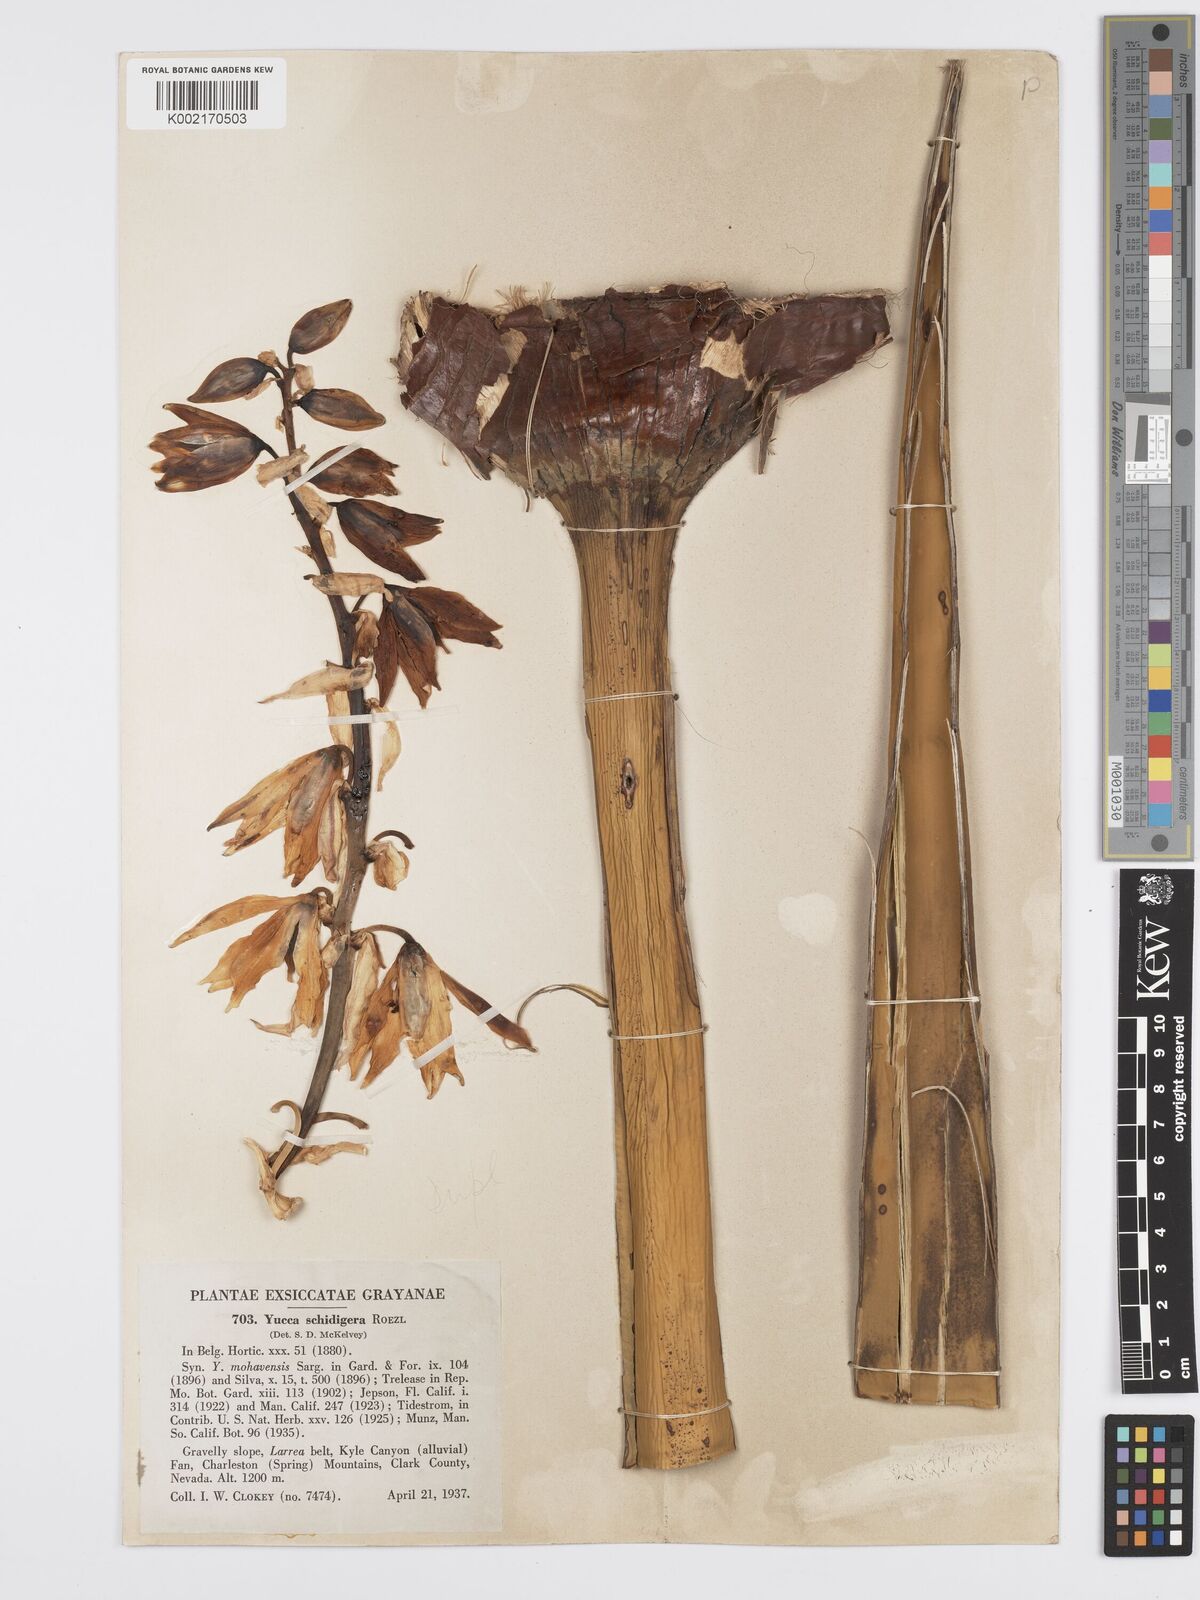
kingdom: Plantae
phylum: Tracheophyta
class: Liliopsida
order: Asparagales
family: Asparagaceae
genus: Yucca
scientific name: Yucca schidigera
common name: Mojave yucca
